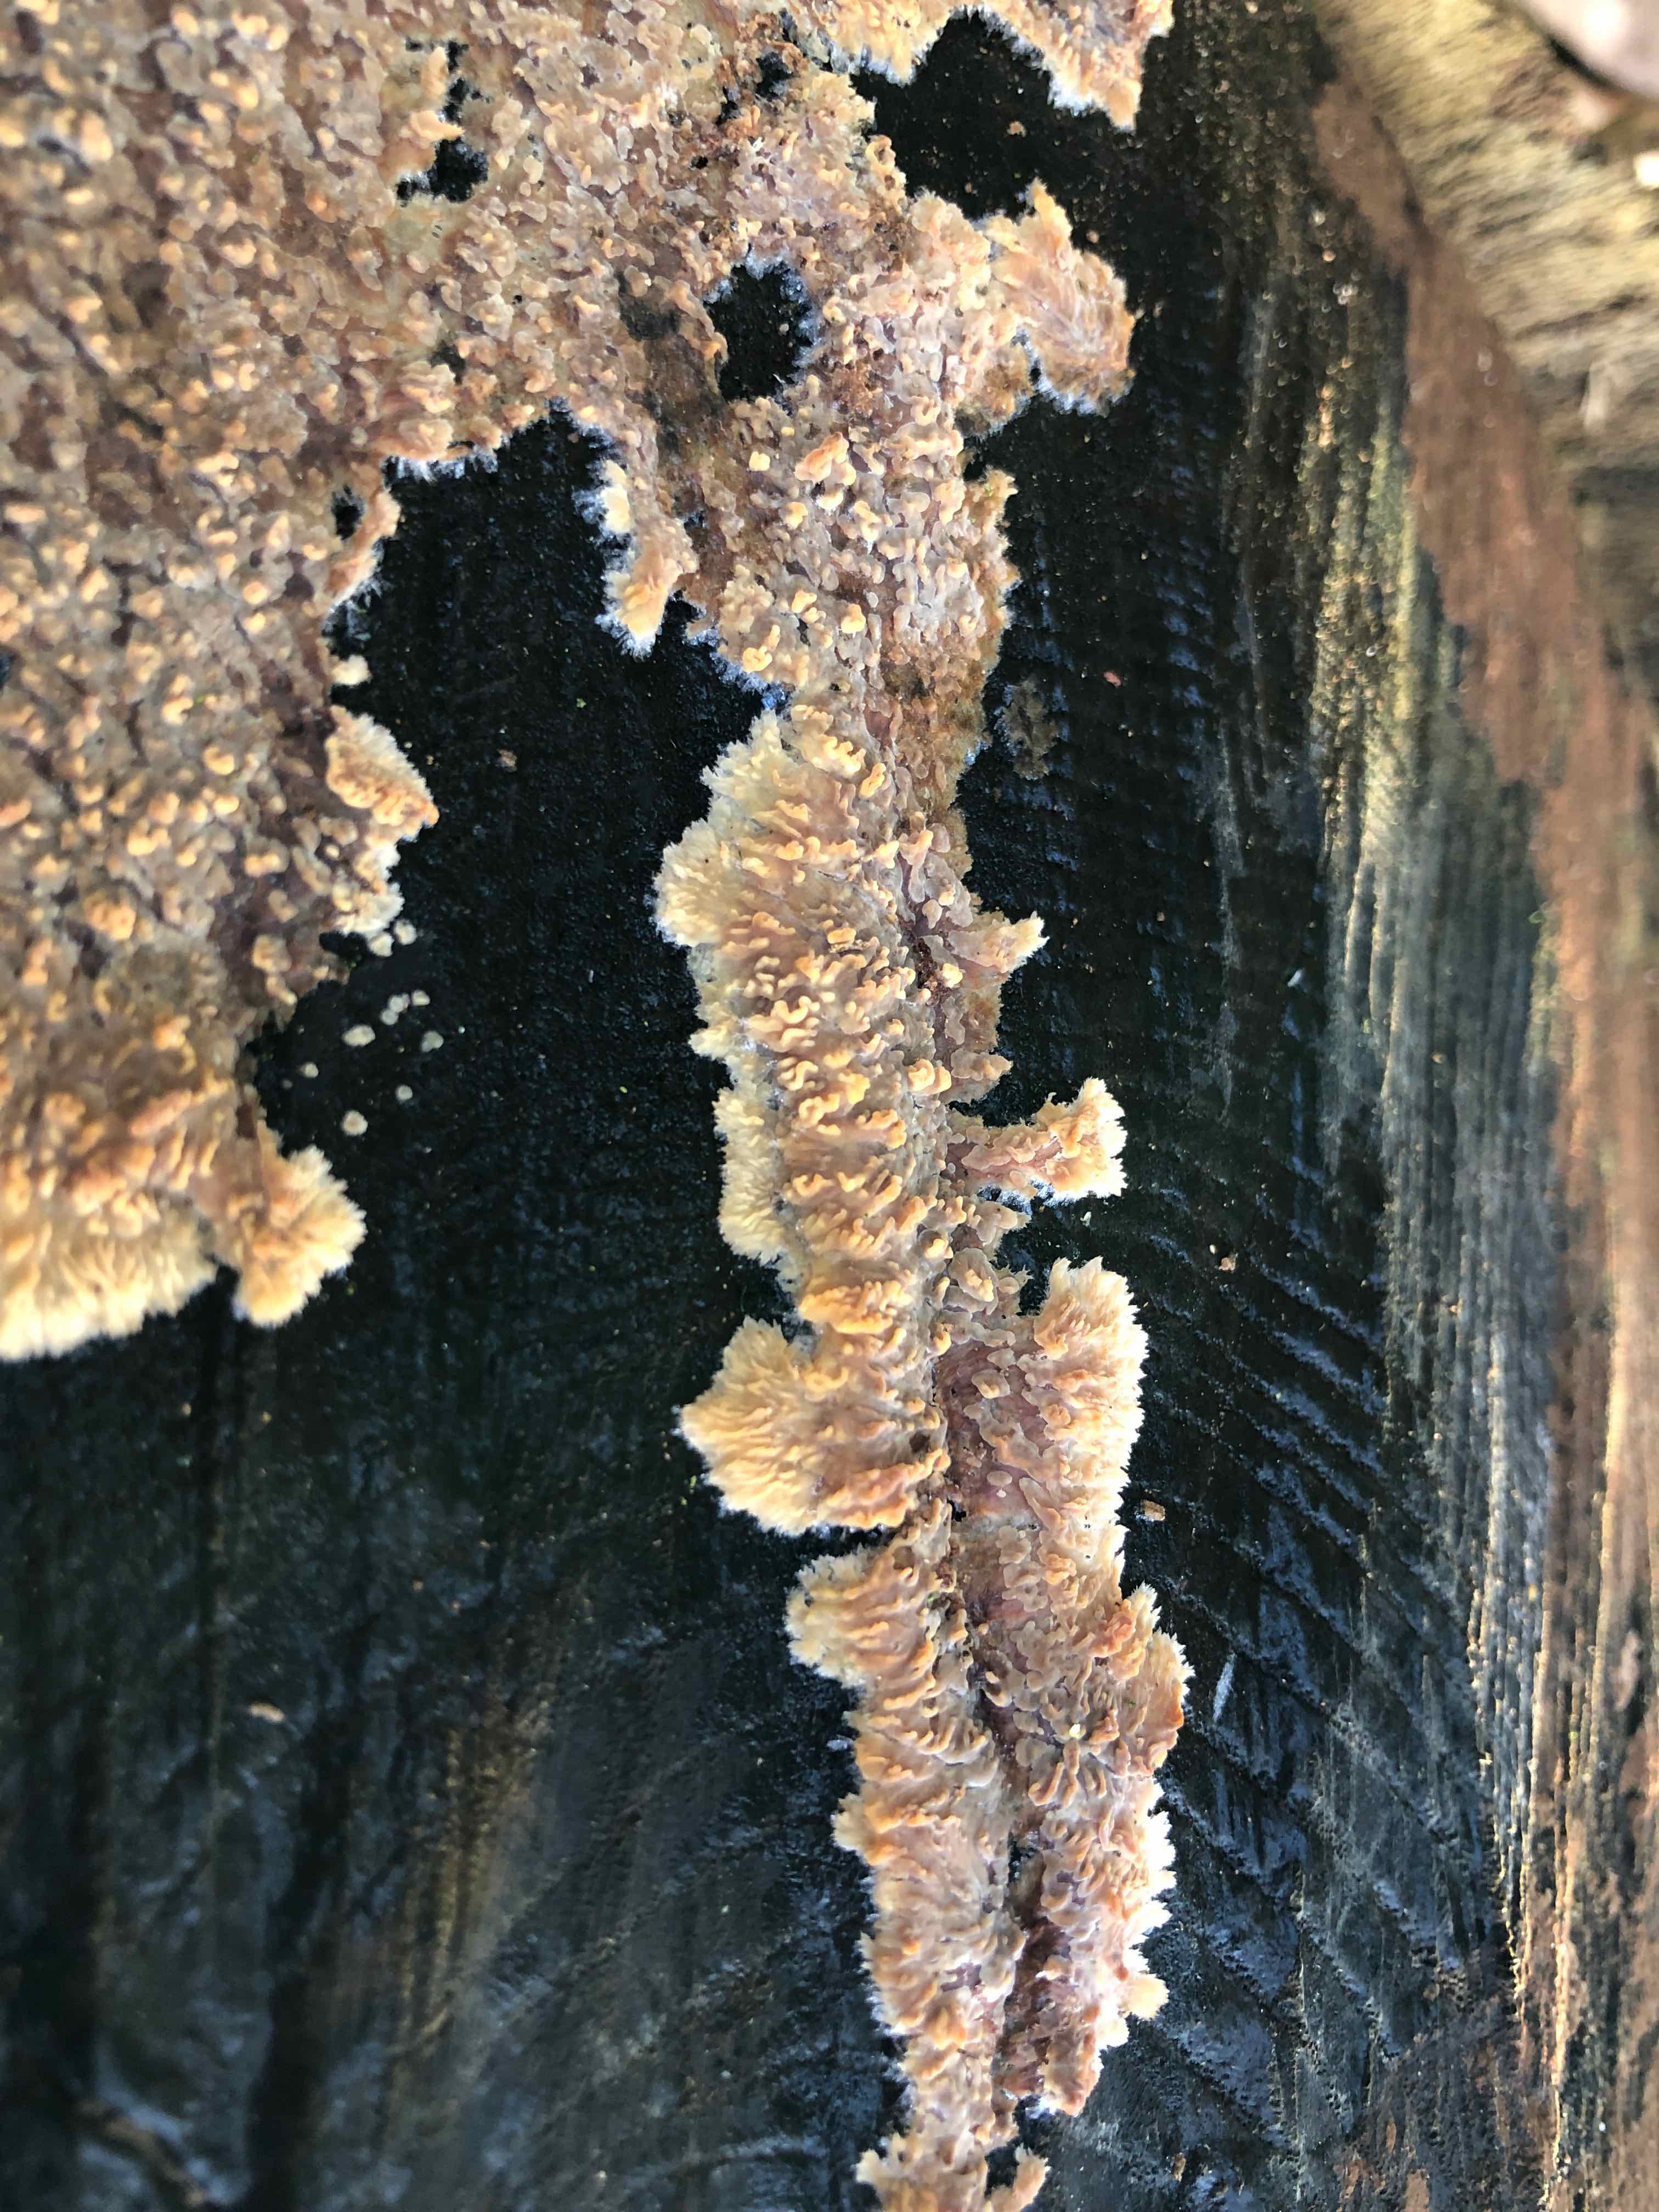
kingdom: Fungi
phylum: Basidiomycota
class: Agaricomycetes
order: Polyporales
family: Meruliaceae
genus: Phlebia
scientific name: Phlebia radiata
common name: stråle-åresvamp
